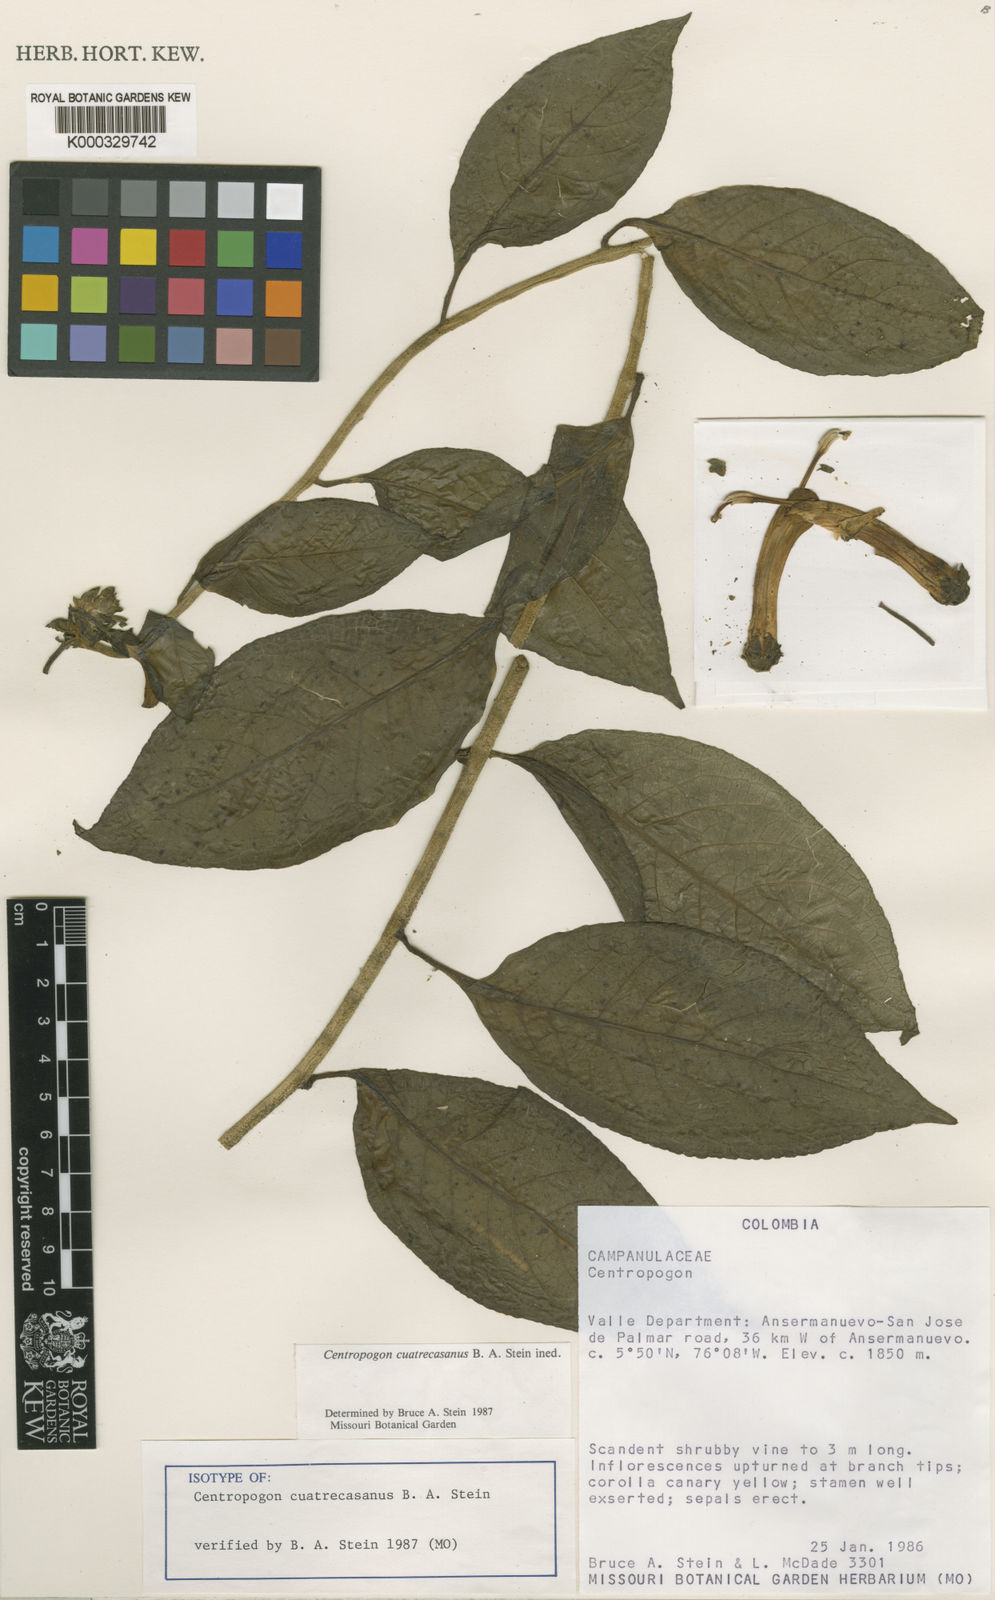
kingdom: Plantae
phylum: Tracheophyta
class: Magnoliopsida
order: Asterales
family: Campanulaceae
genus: Centropogon
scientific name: Centropogon
